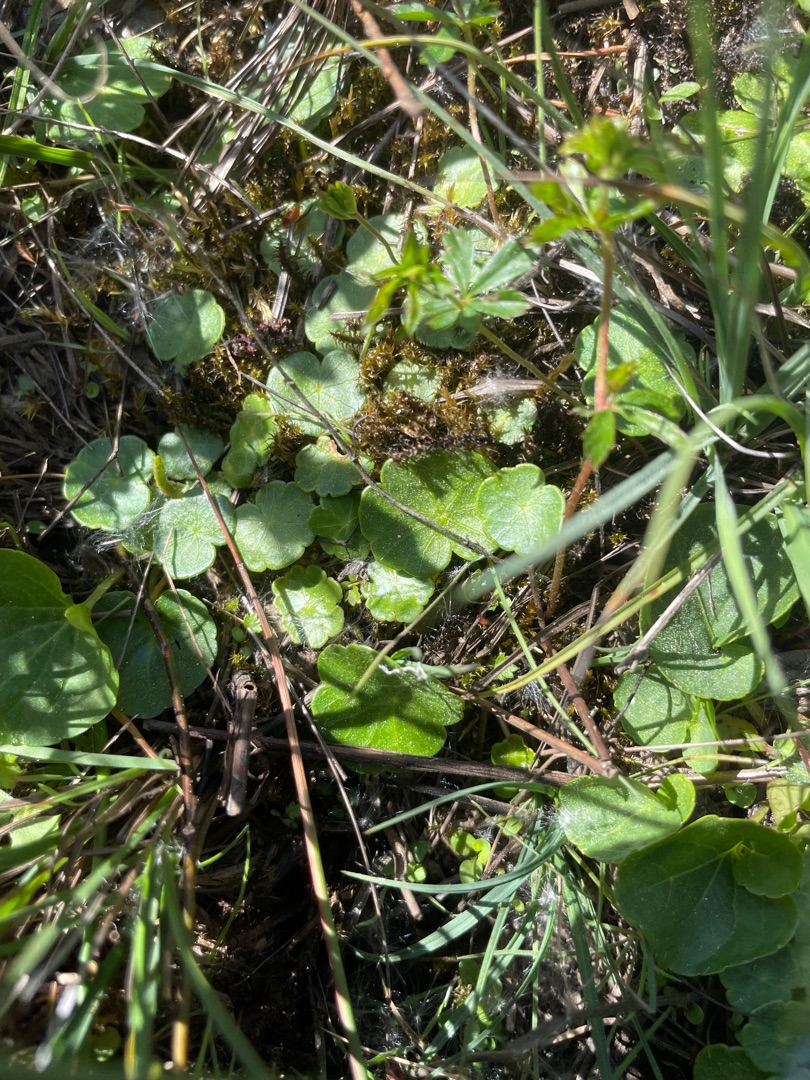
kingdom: Plantae
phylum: Tracheophyta
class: Magnoliopsida
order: Apiales
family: Araliaceae
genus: Hydrocotyle
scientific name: Hydrocotyle vulgaris
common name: Vandnavle
